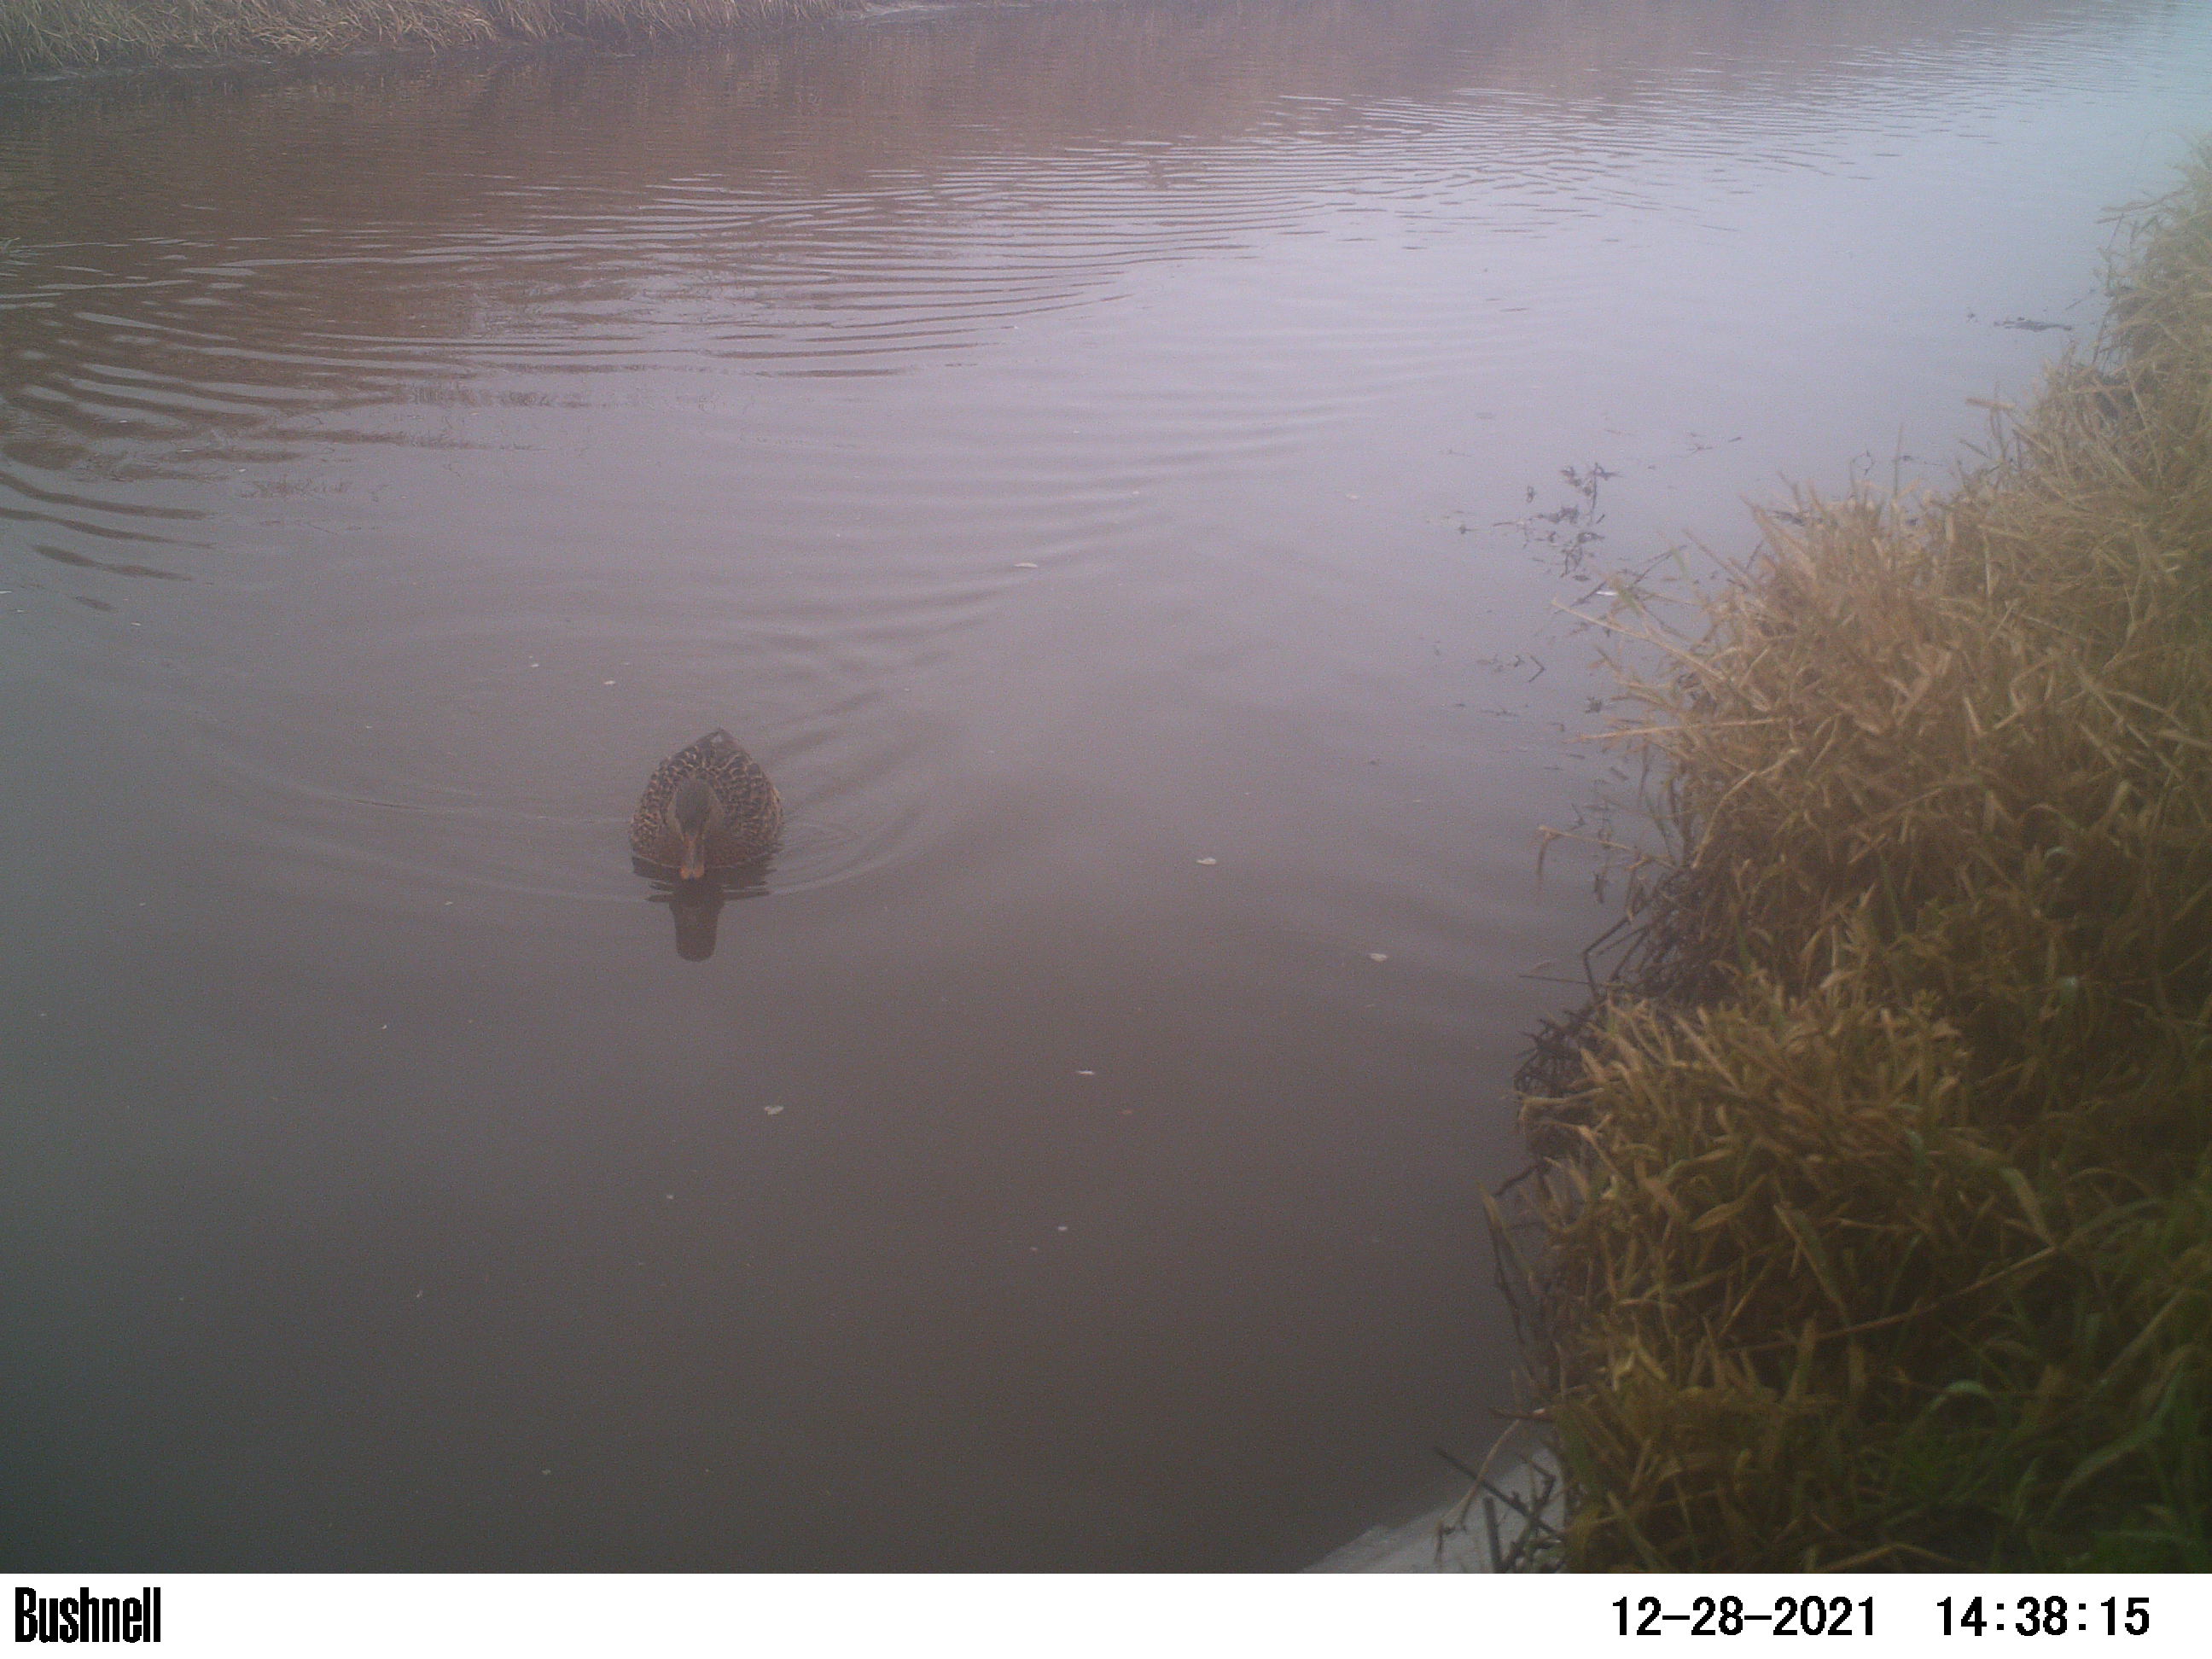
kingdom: Animalia
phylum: Chordata
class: Aves
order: Anseriformes
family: Anatidae
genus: Anas
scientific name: Anas
